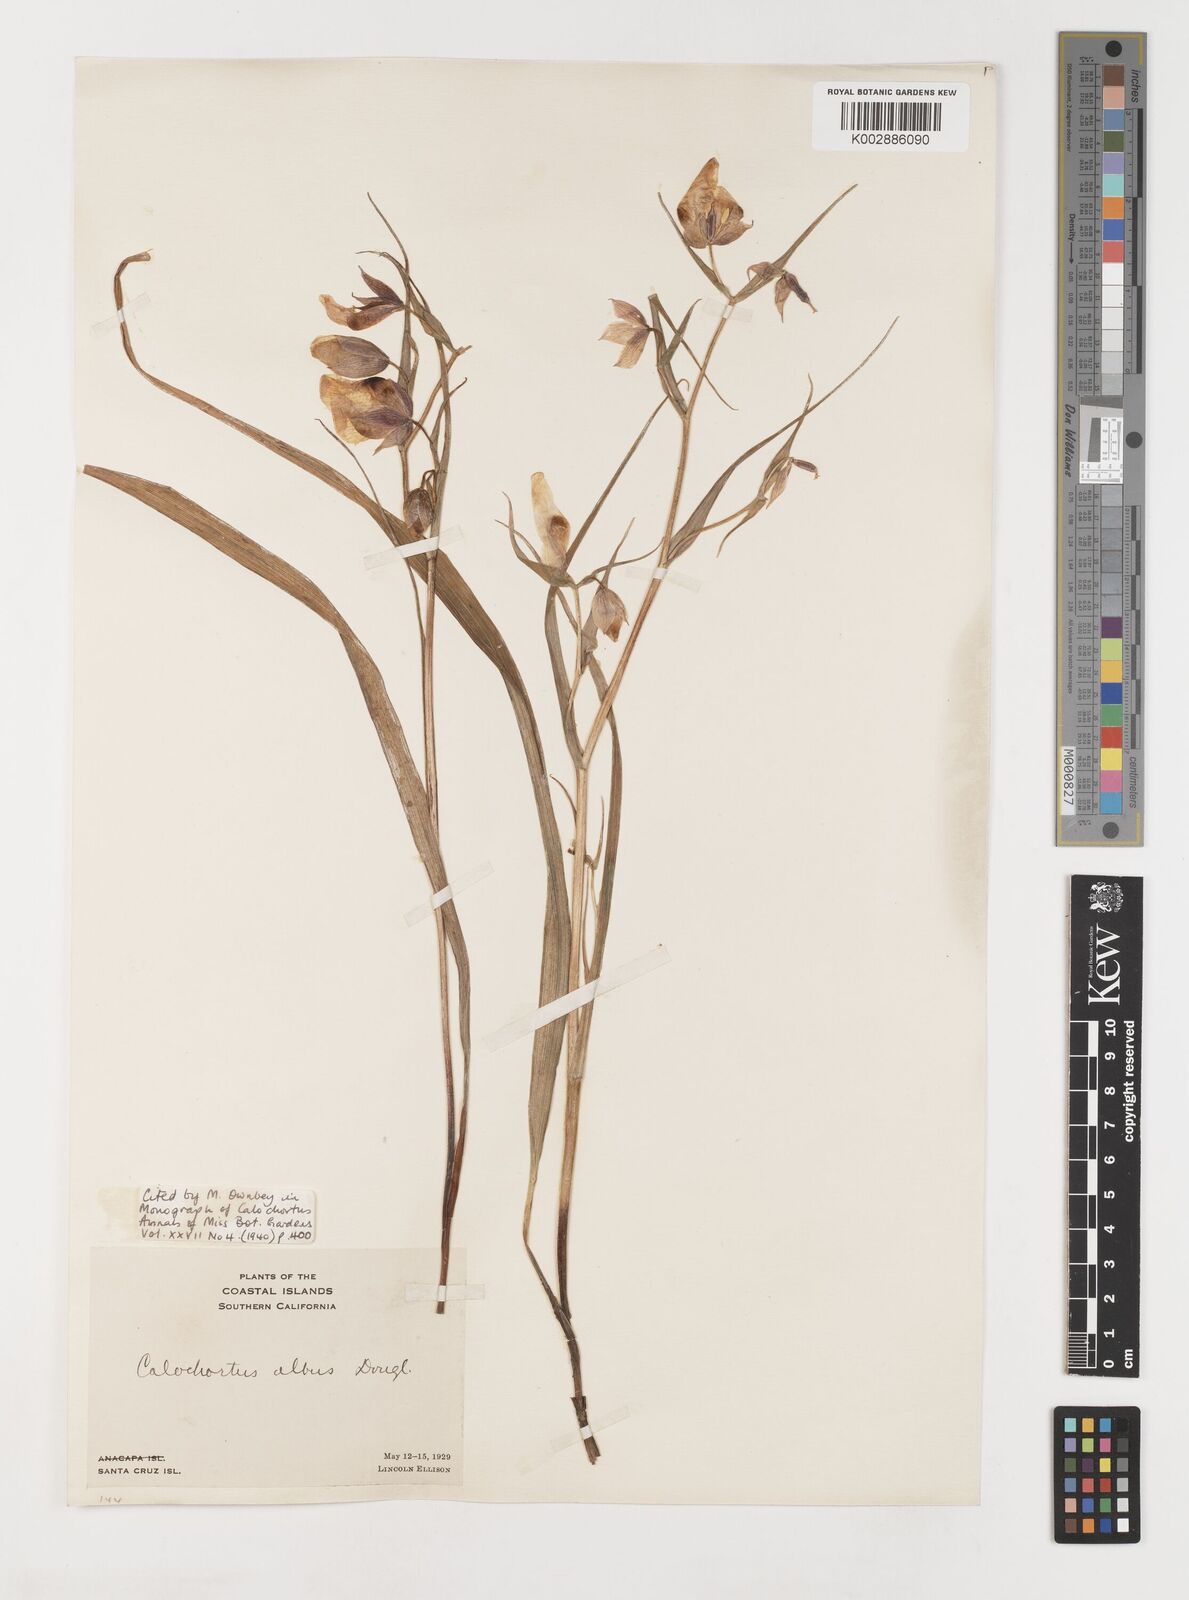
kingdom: Plantae
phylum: Tracheophyta
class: Liliopsida
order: Liliales
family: Liliaceae
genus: Calochortus
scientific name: Calochortus albus
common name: Fairy-lantern
